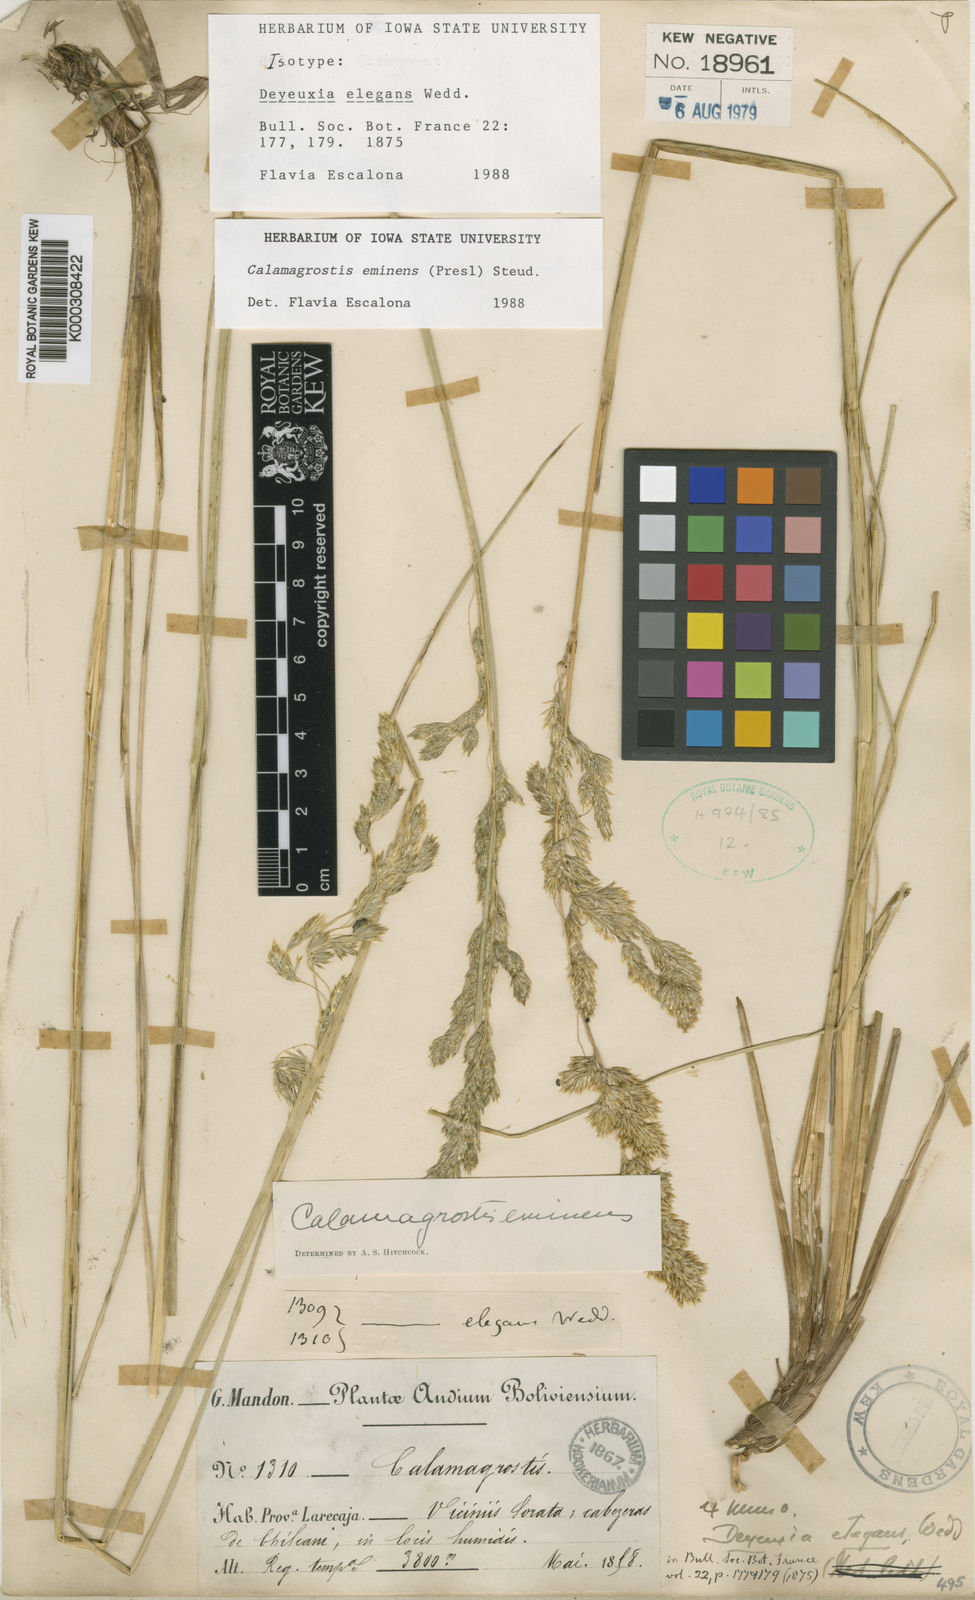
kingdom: Plantae
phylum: Tracheophyta
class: Liliopsida
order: Poales
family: Poaceae
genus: Deschampsia
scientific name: Deschampsia eminens
